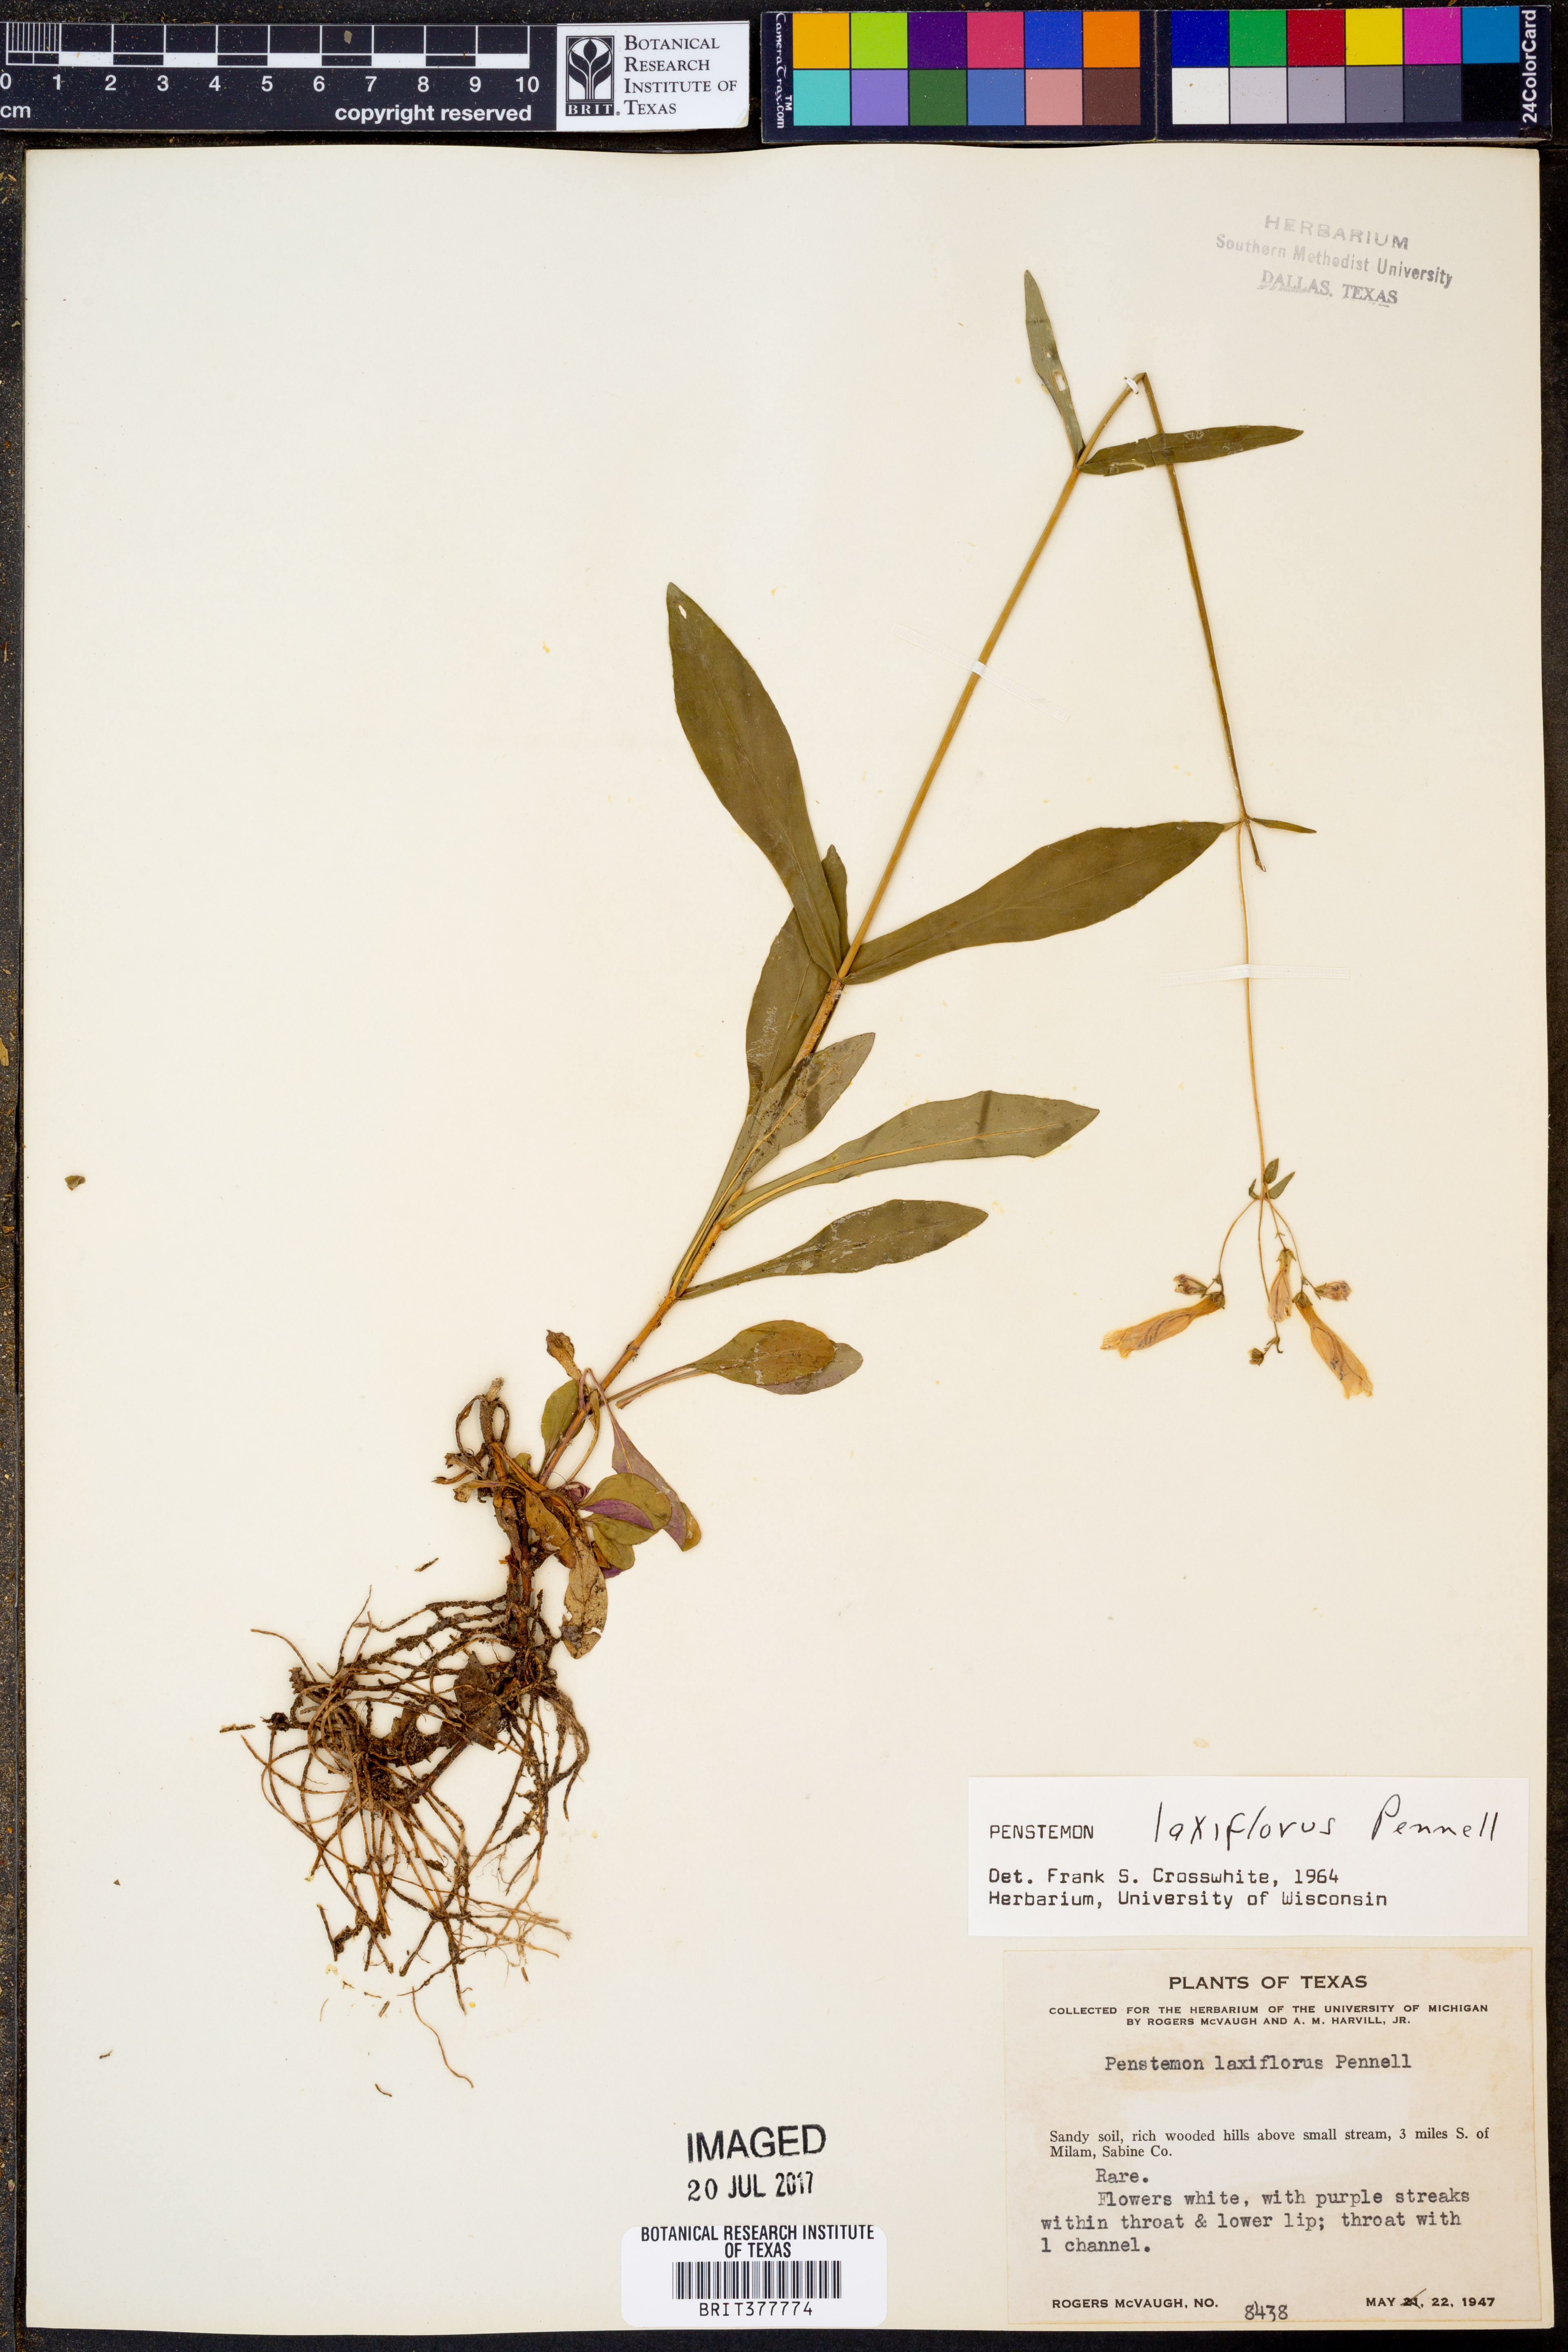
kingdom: Plantae
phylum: Tracheophyta
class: Magnoliopsida
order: Lamiales
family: Plantaginaceae
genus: Penstemon
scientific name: Penstemon laxiflorus
